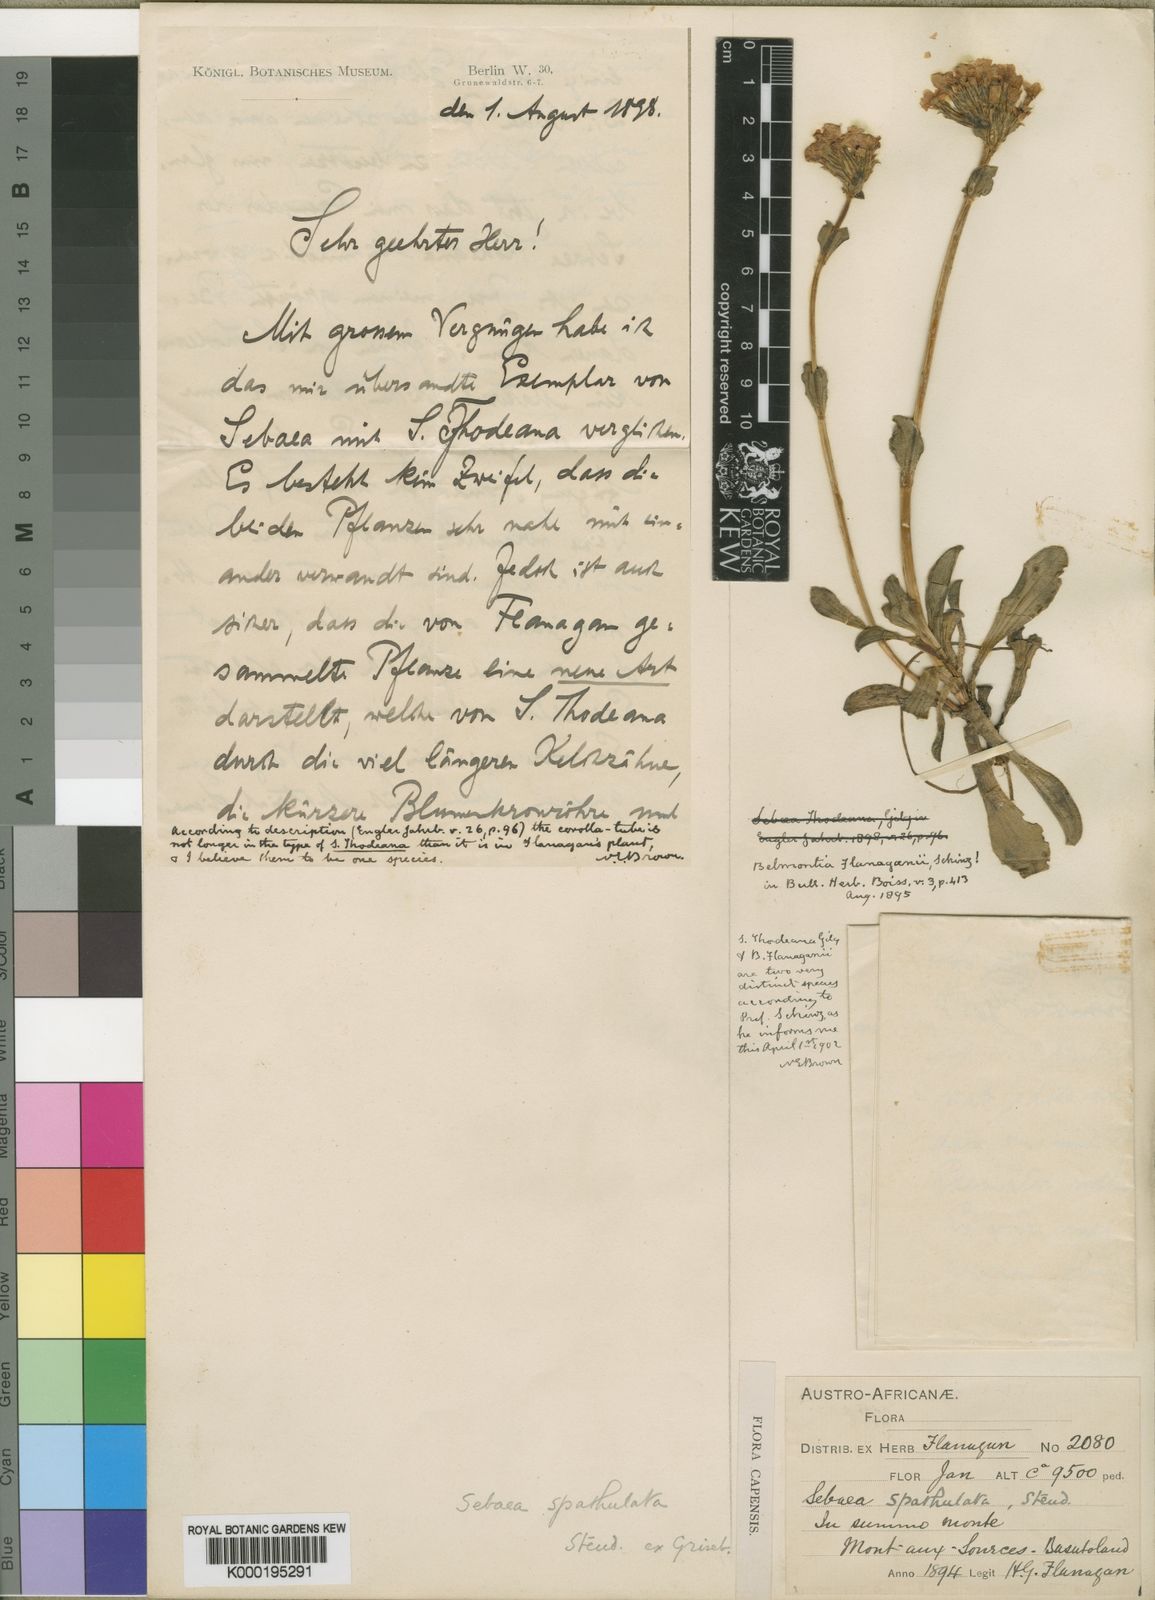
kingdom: Plantae
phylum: Tracheophyta
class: Magnoliopsida
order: Gentianales
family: Gentianaceae
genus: Sebaea
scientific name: Sebaea spathulata
